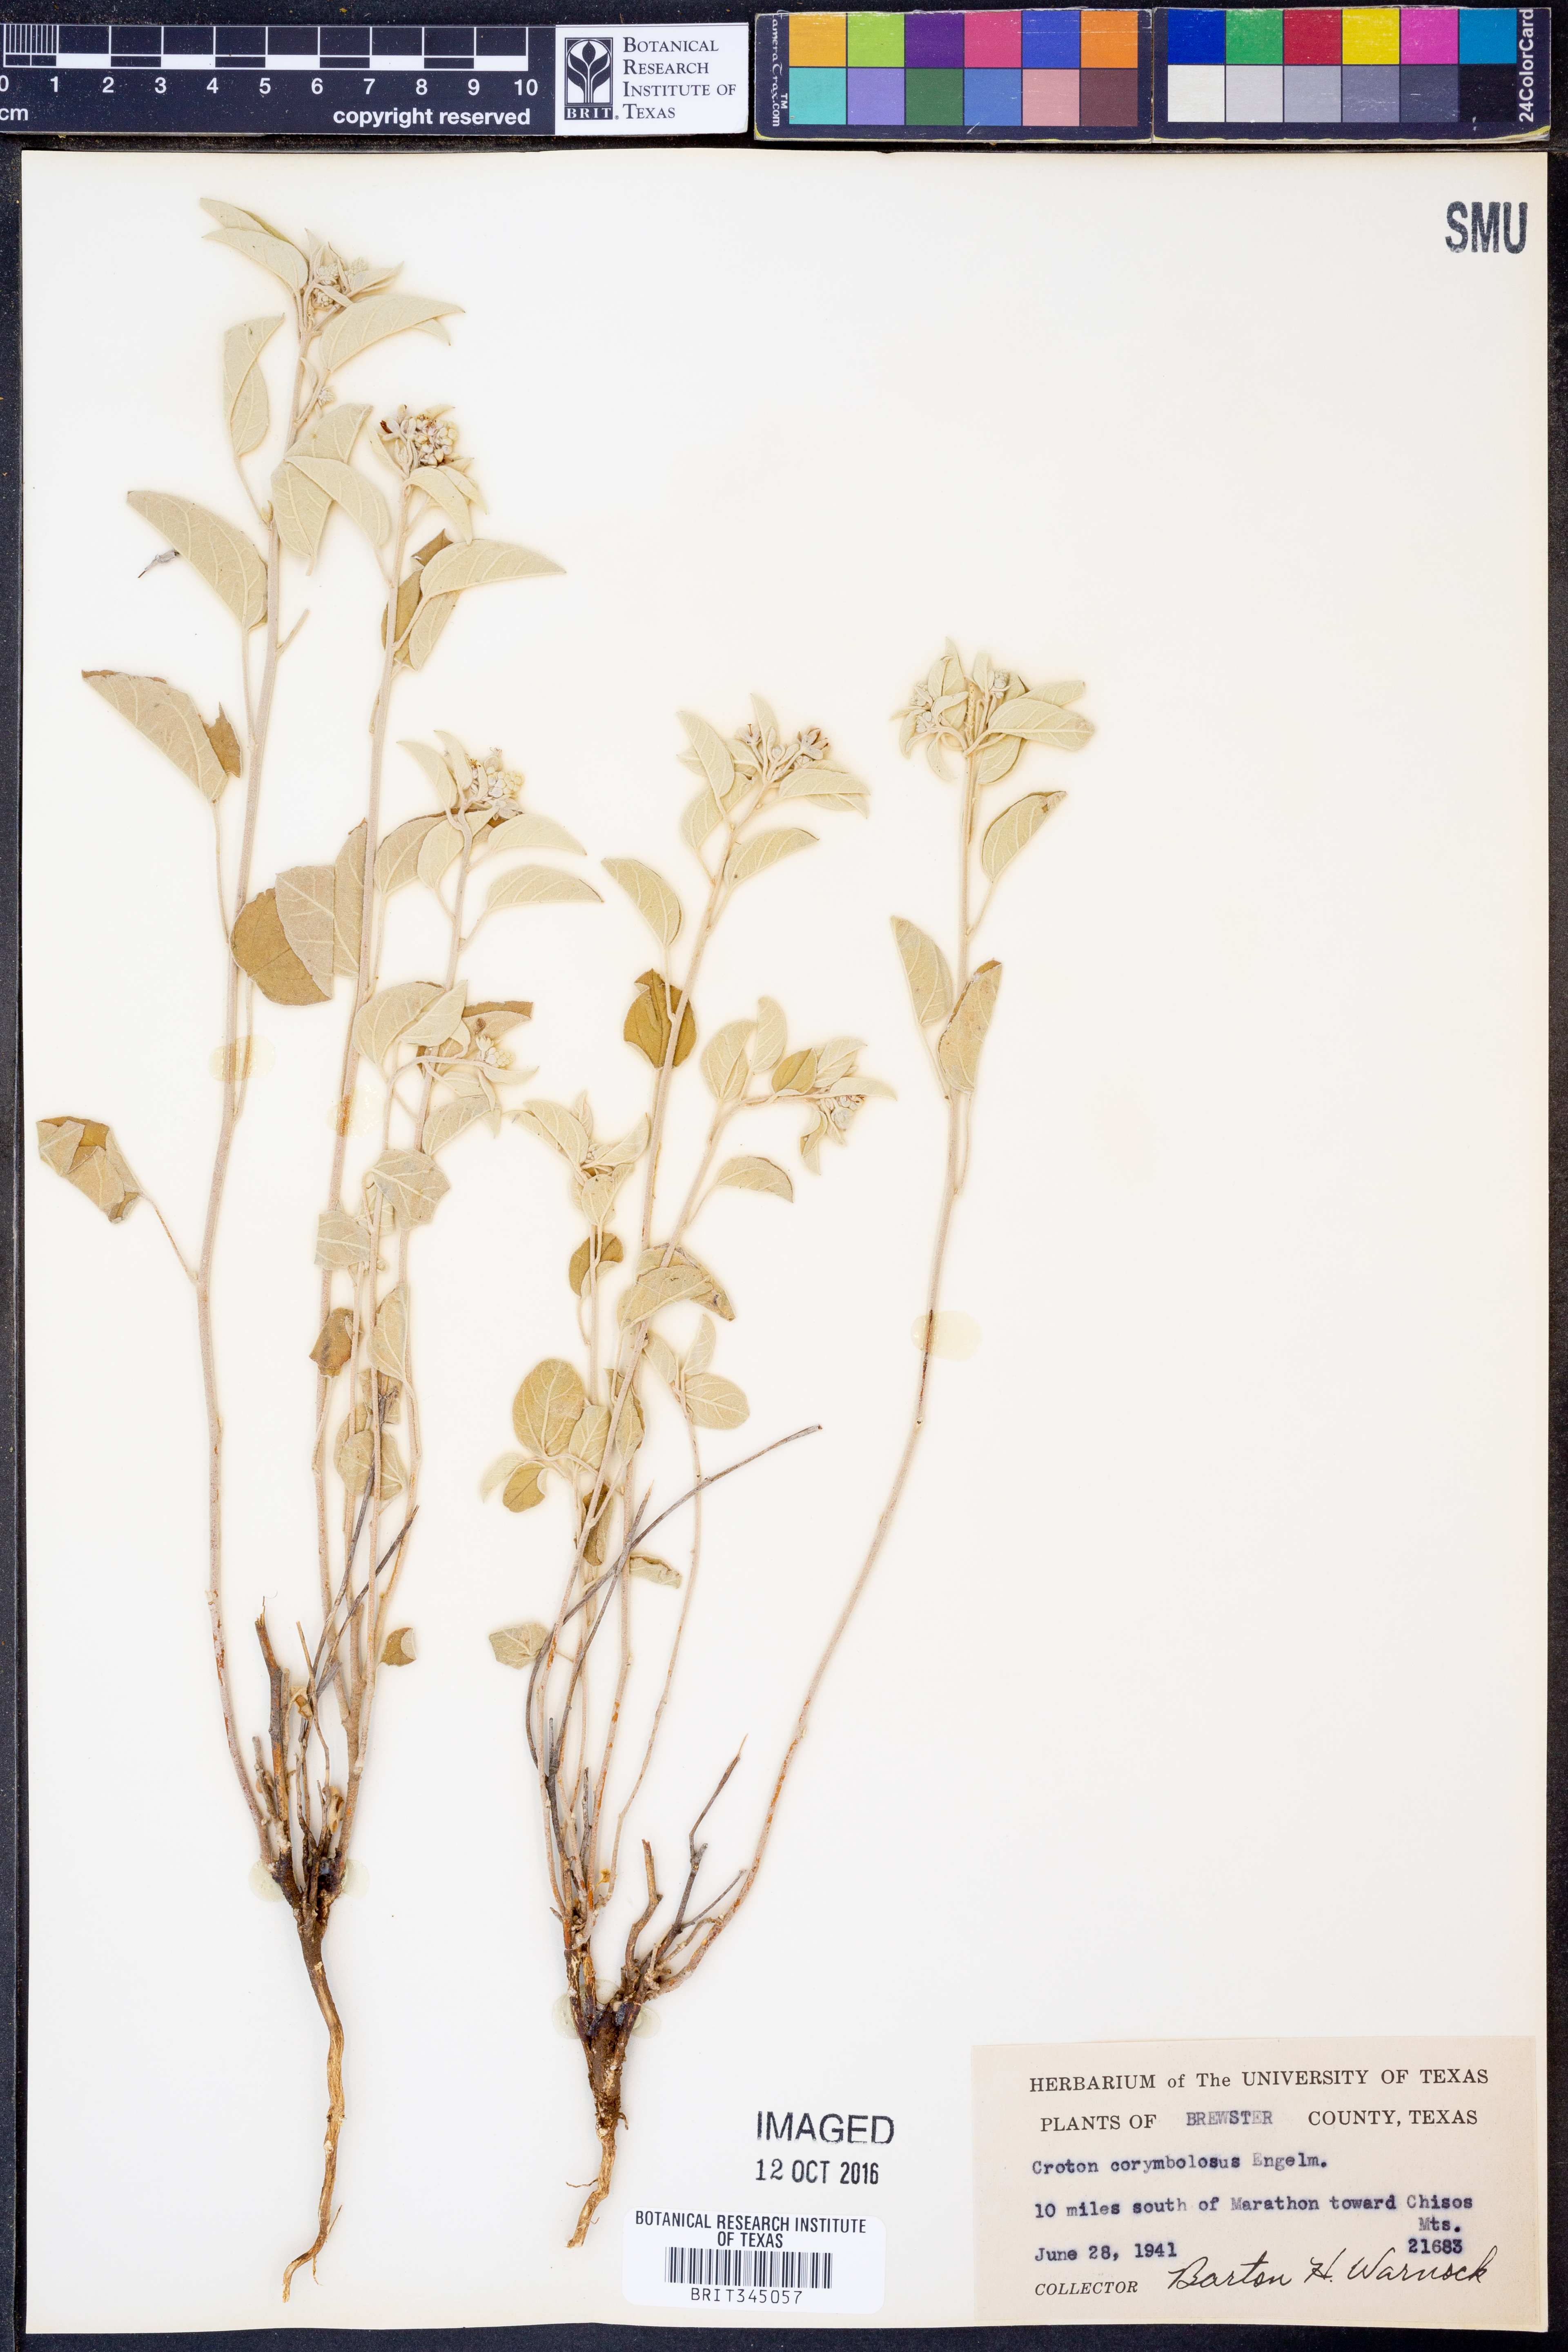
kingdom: Plantae
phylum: Tracheophyta
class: Magnoliopsida
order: Malpighiales
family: Euphorbiaceae
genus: Croton
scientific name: Croton pottsii
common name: Leatherweed
